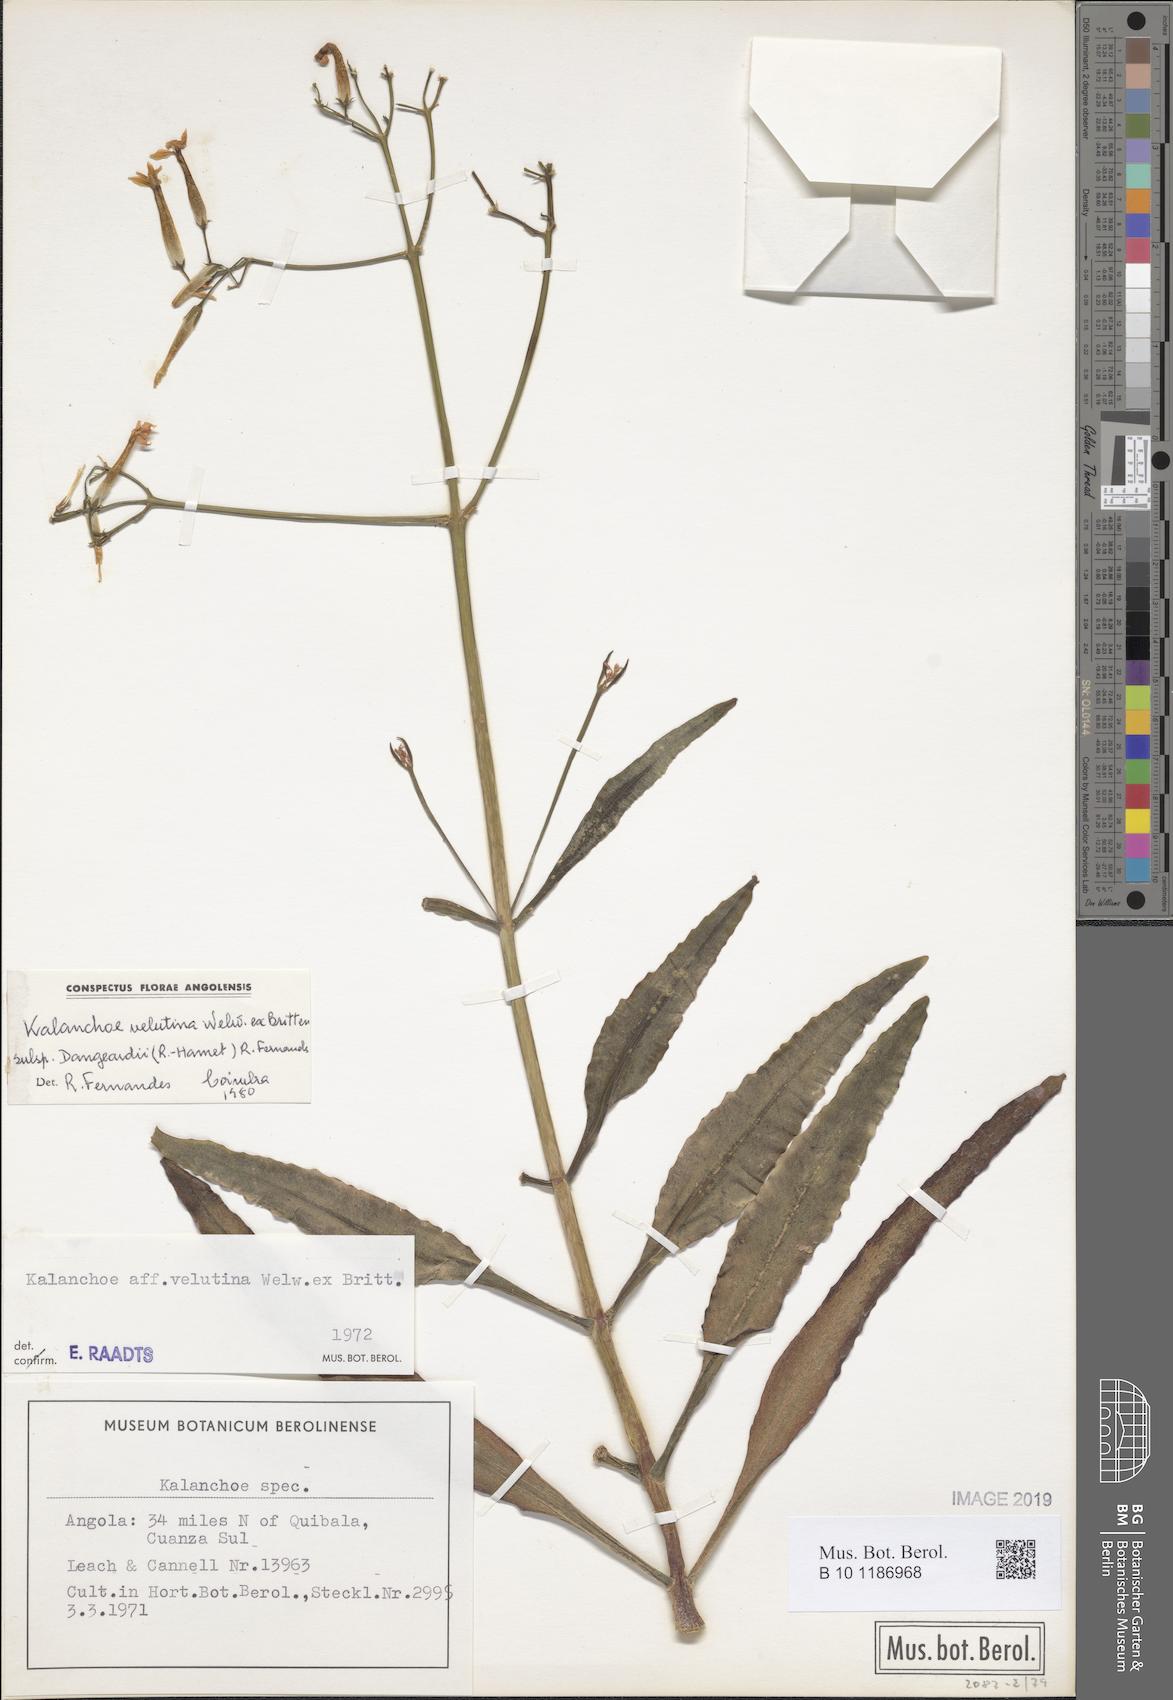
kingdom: Plantae
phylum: Tracheophyta
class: Magnoliopsida
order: Saxifragales
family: Crassulaceae
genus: Kalanchoe
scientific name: Kalanchoe velutina
